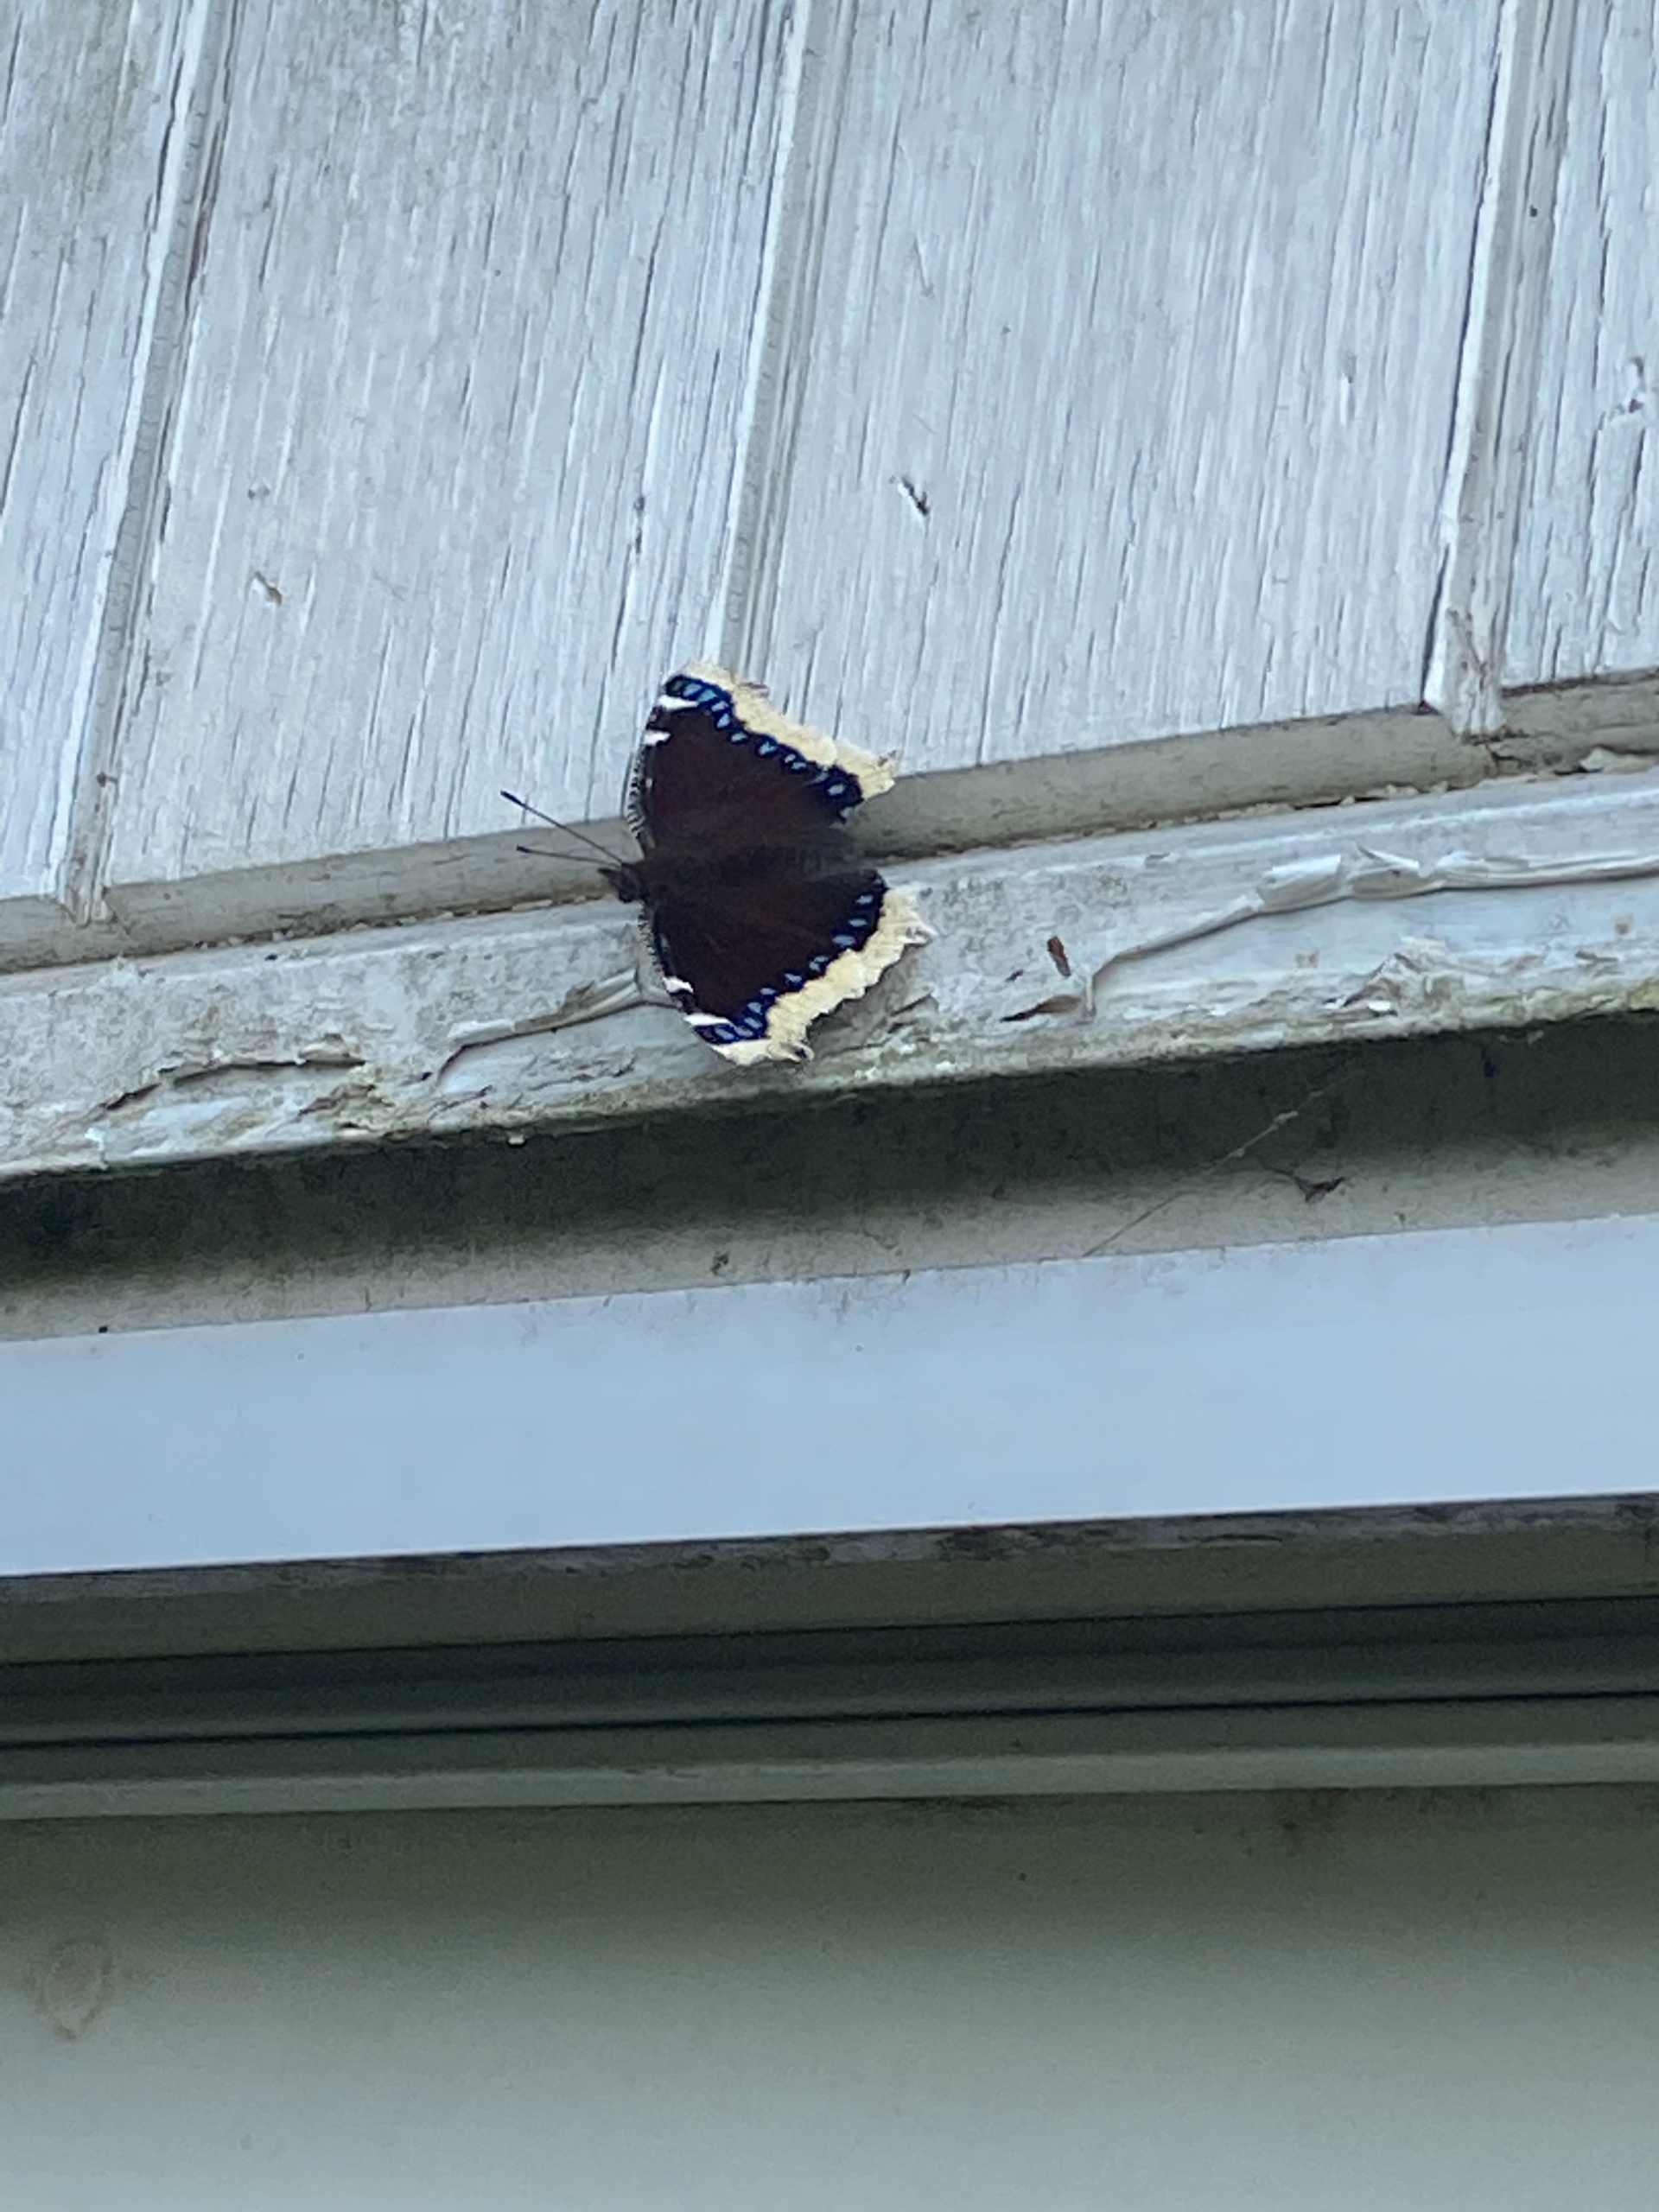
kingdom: Animalia
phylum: Arthropoda
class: Insecta
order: Lepidoptera
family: Nymphalidae
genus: Nymphalis
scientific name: Nymphalis antiopa
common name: Sørgekåbe
